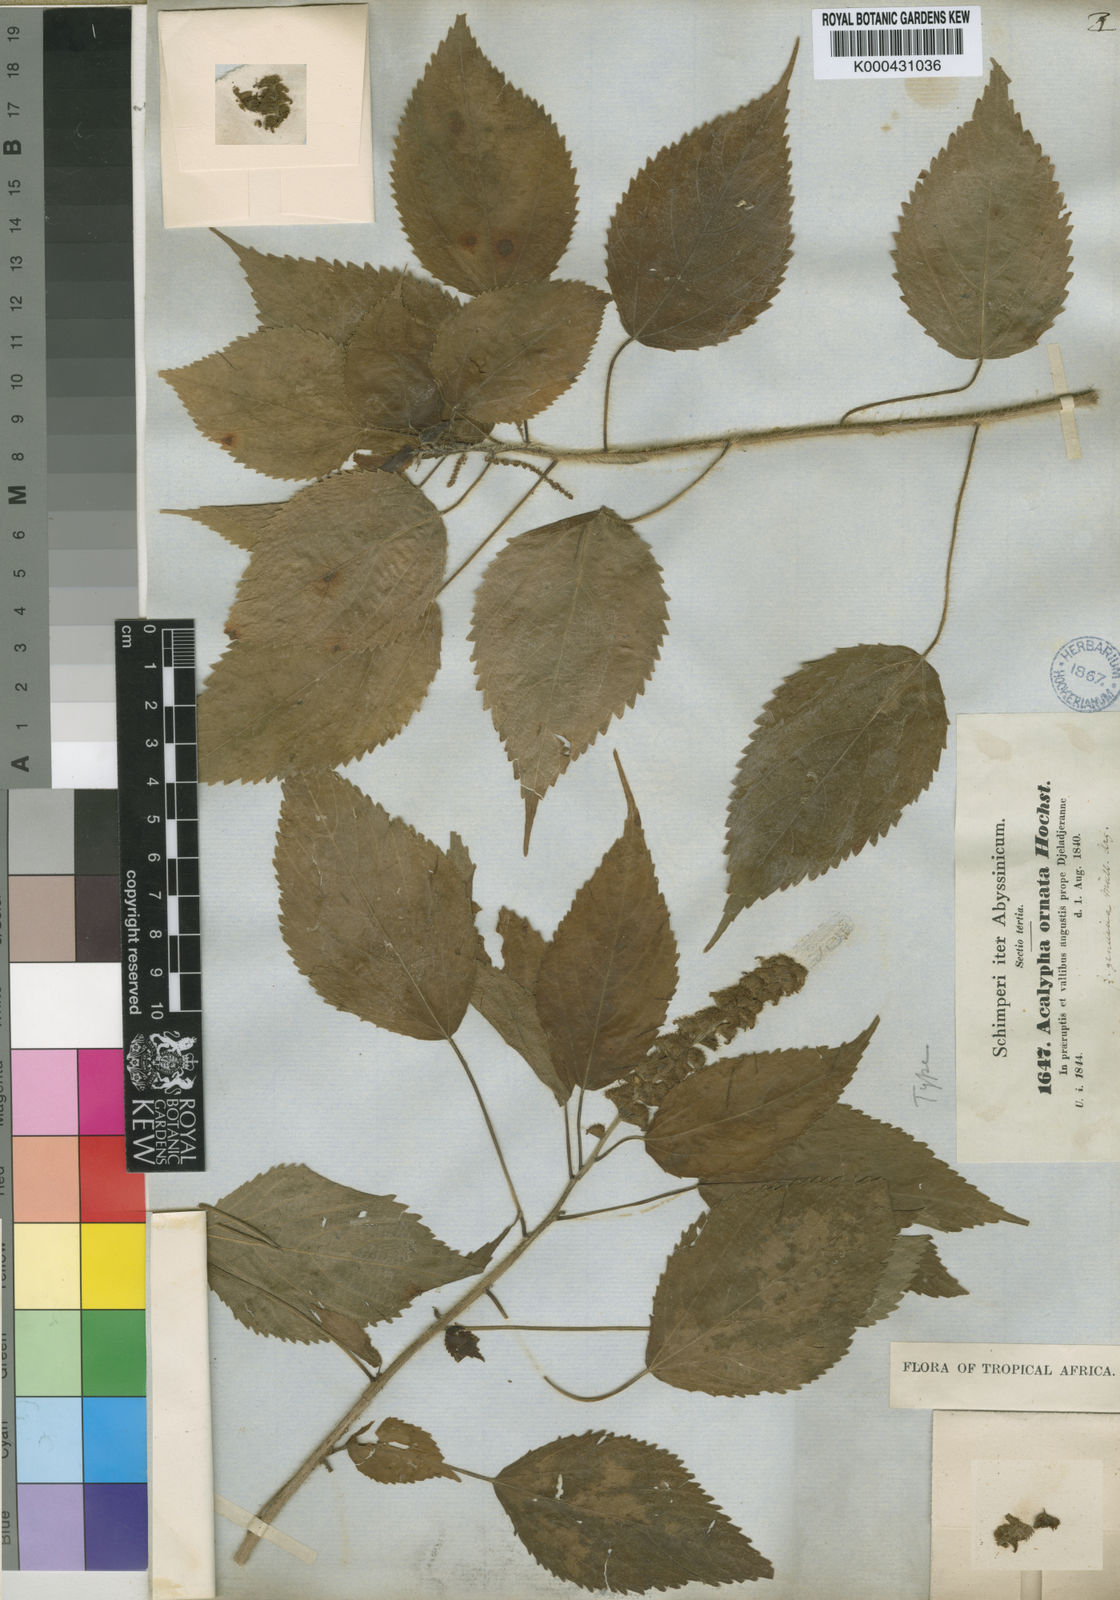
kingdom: Plantae
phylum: Tracheophyta
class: Magnoliopsida
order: Malpighiales
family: Euphorbiaceae
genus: Acalypha
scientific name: Acalypha ornata
